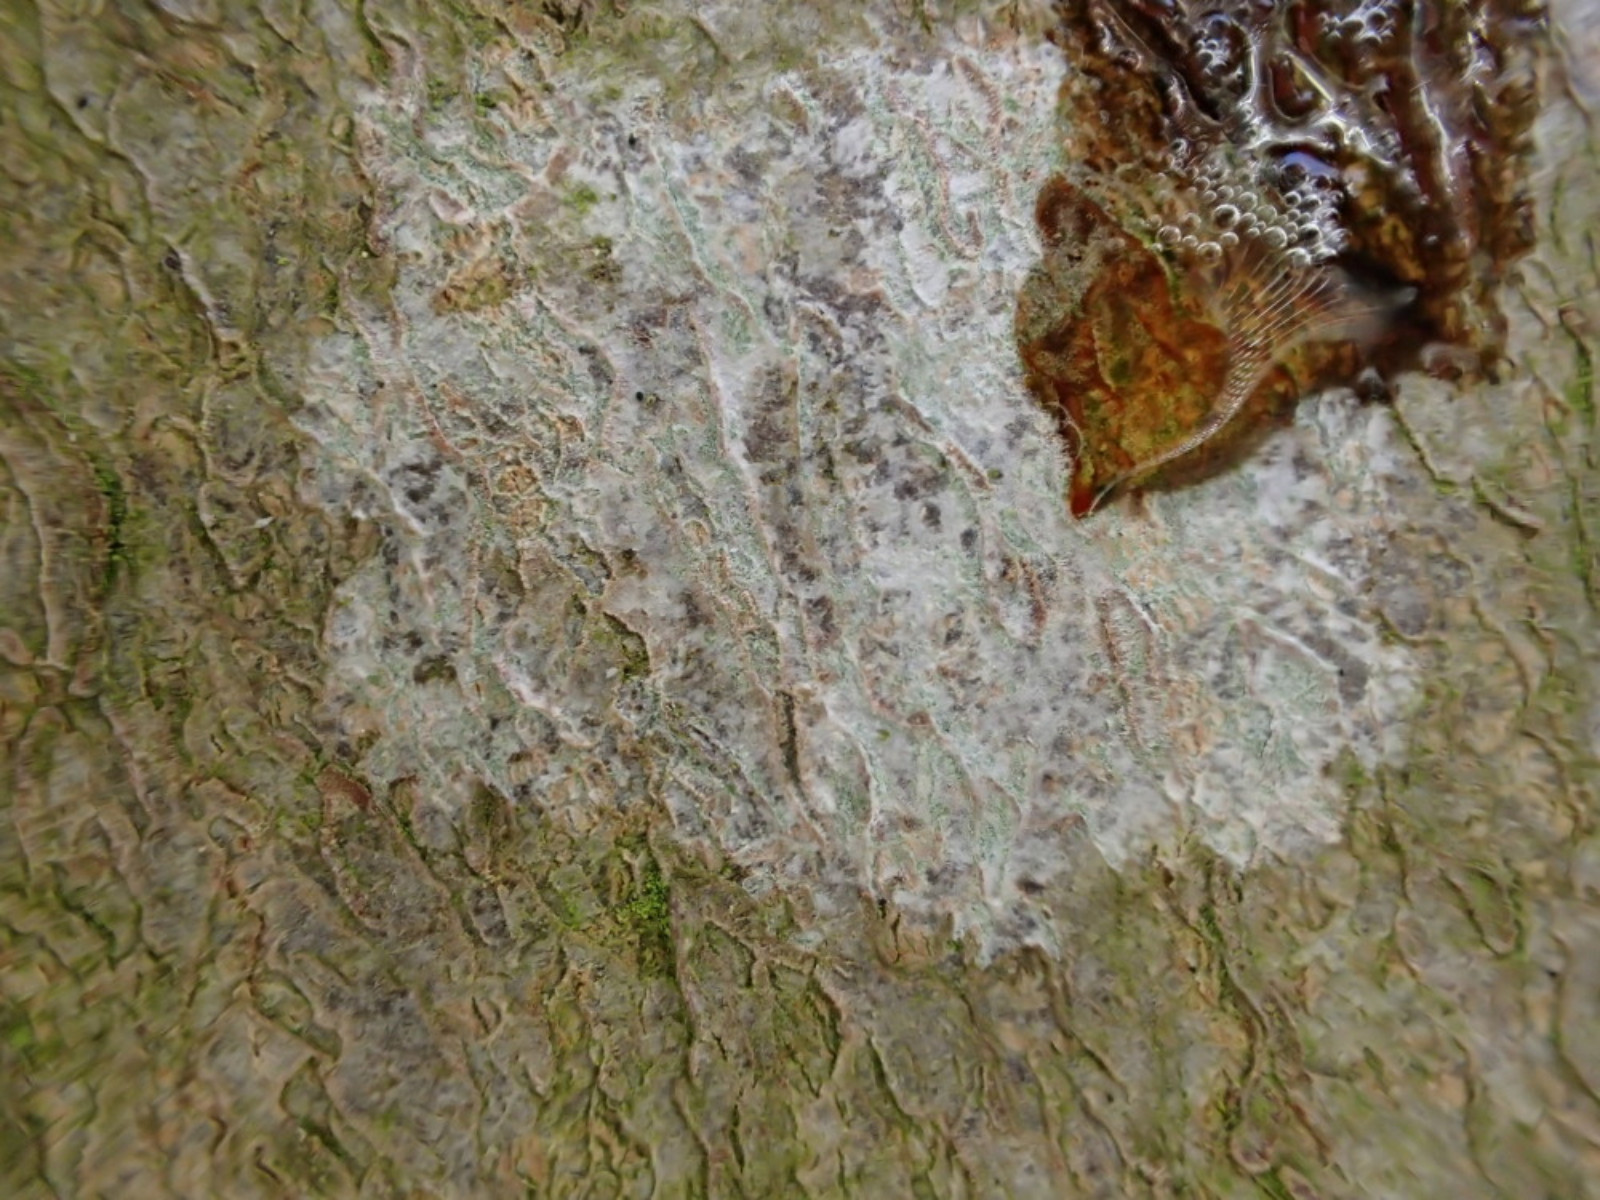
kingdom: Fungi
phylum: Ascomycota
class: Lecanoromycetes
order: Ostropales
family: Phlyctidaceae
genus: Phlyctis
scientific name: Phlyctis argena
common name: almindelig sølvlav
